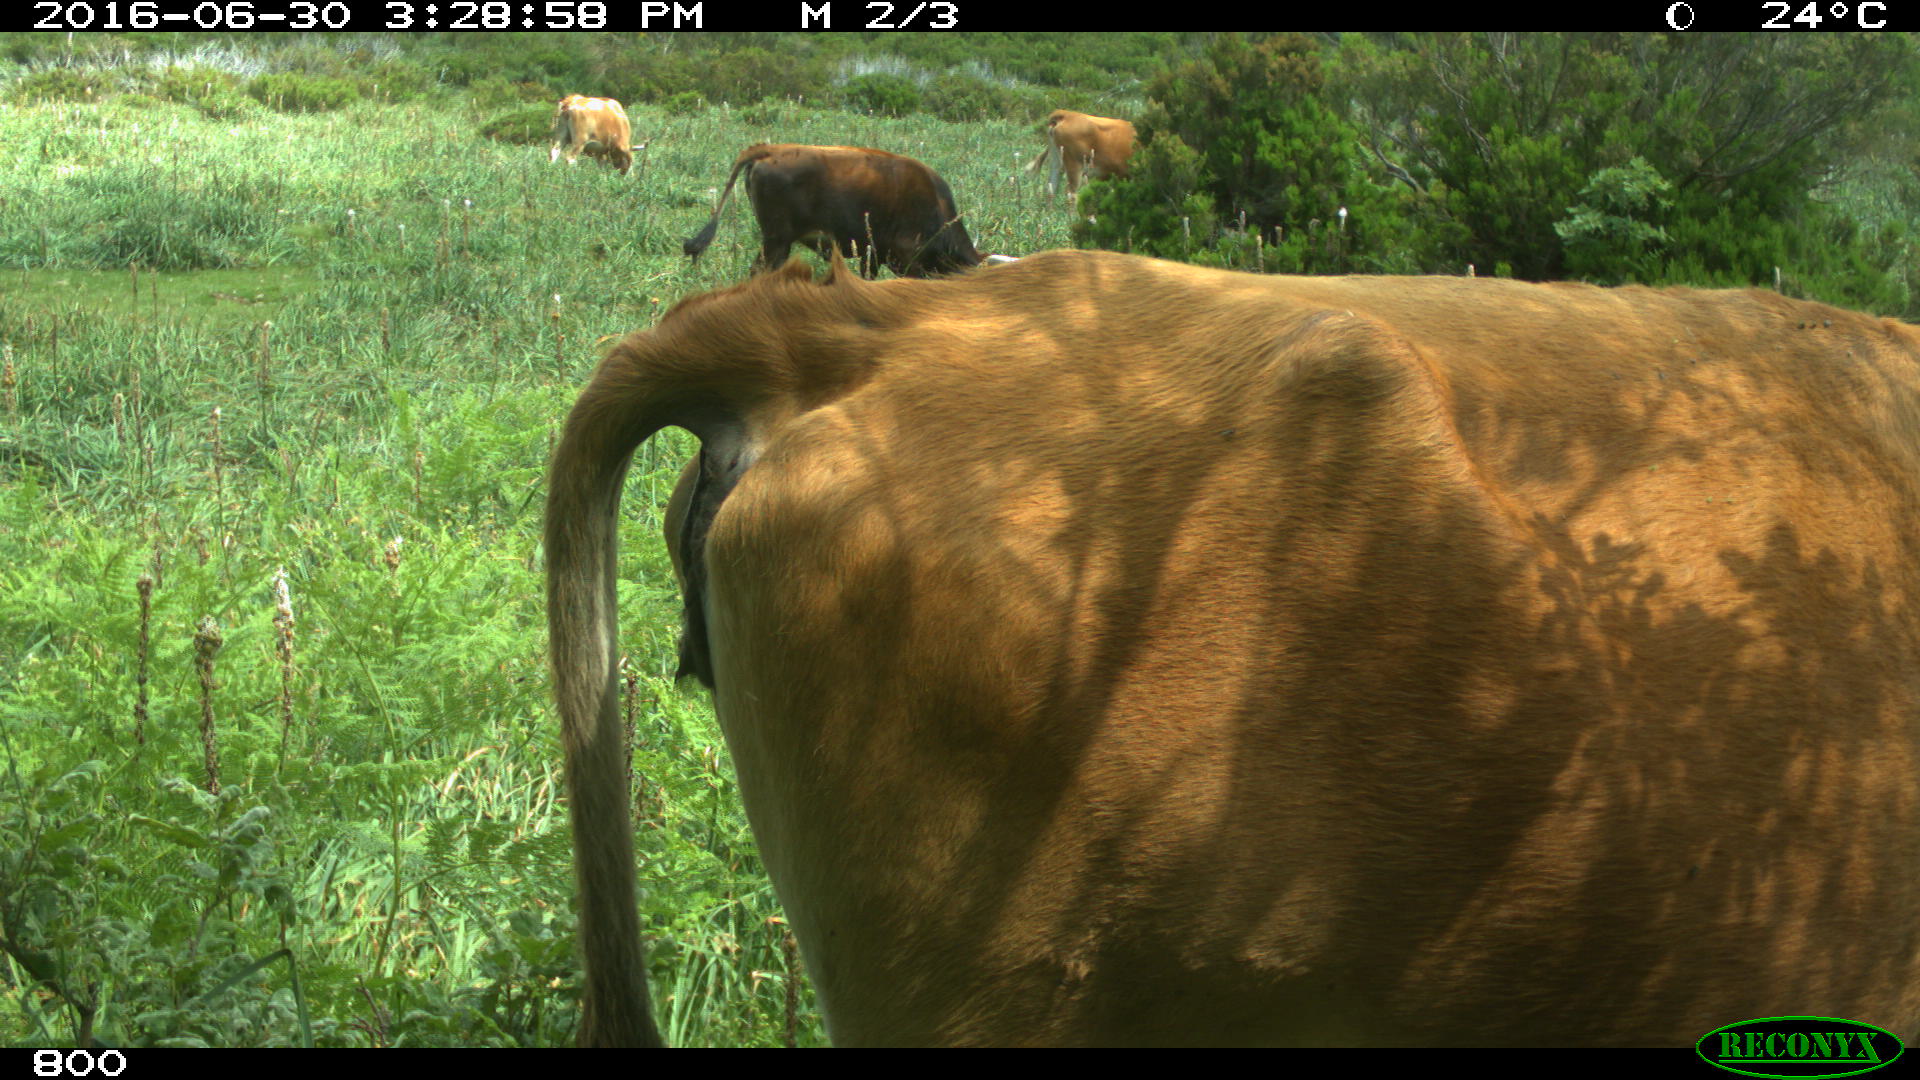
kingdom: Animalia
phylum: Chordata
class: Mammalia
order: Artiodactyla
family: Bovidae
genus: Bos
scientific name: Bos taurus
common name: Domesticated cattle
